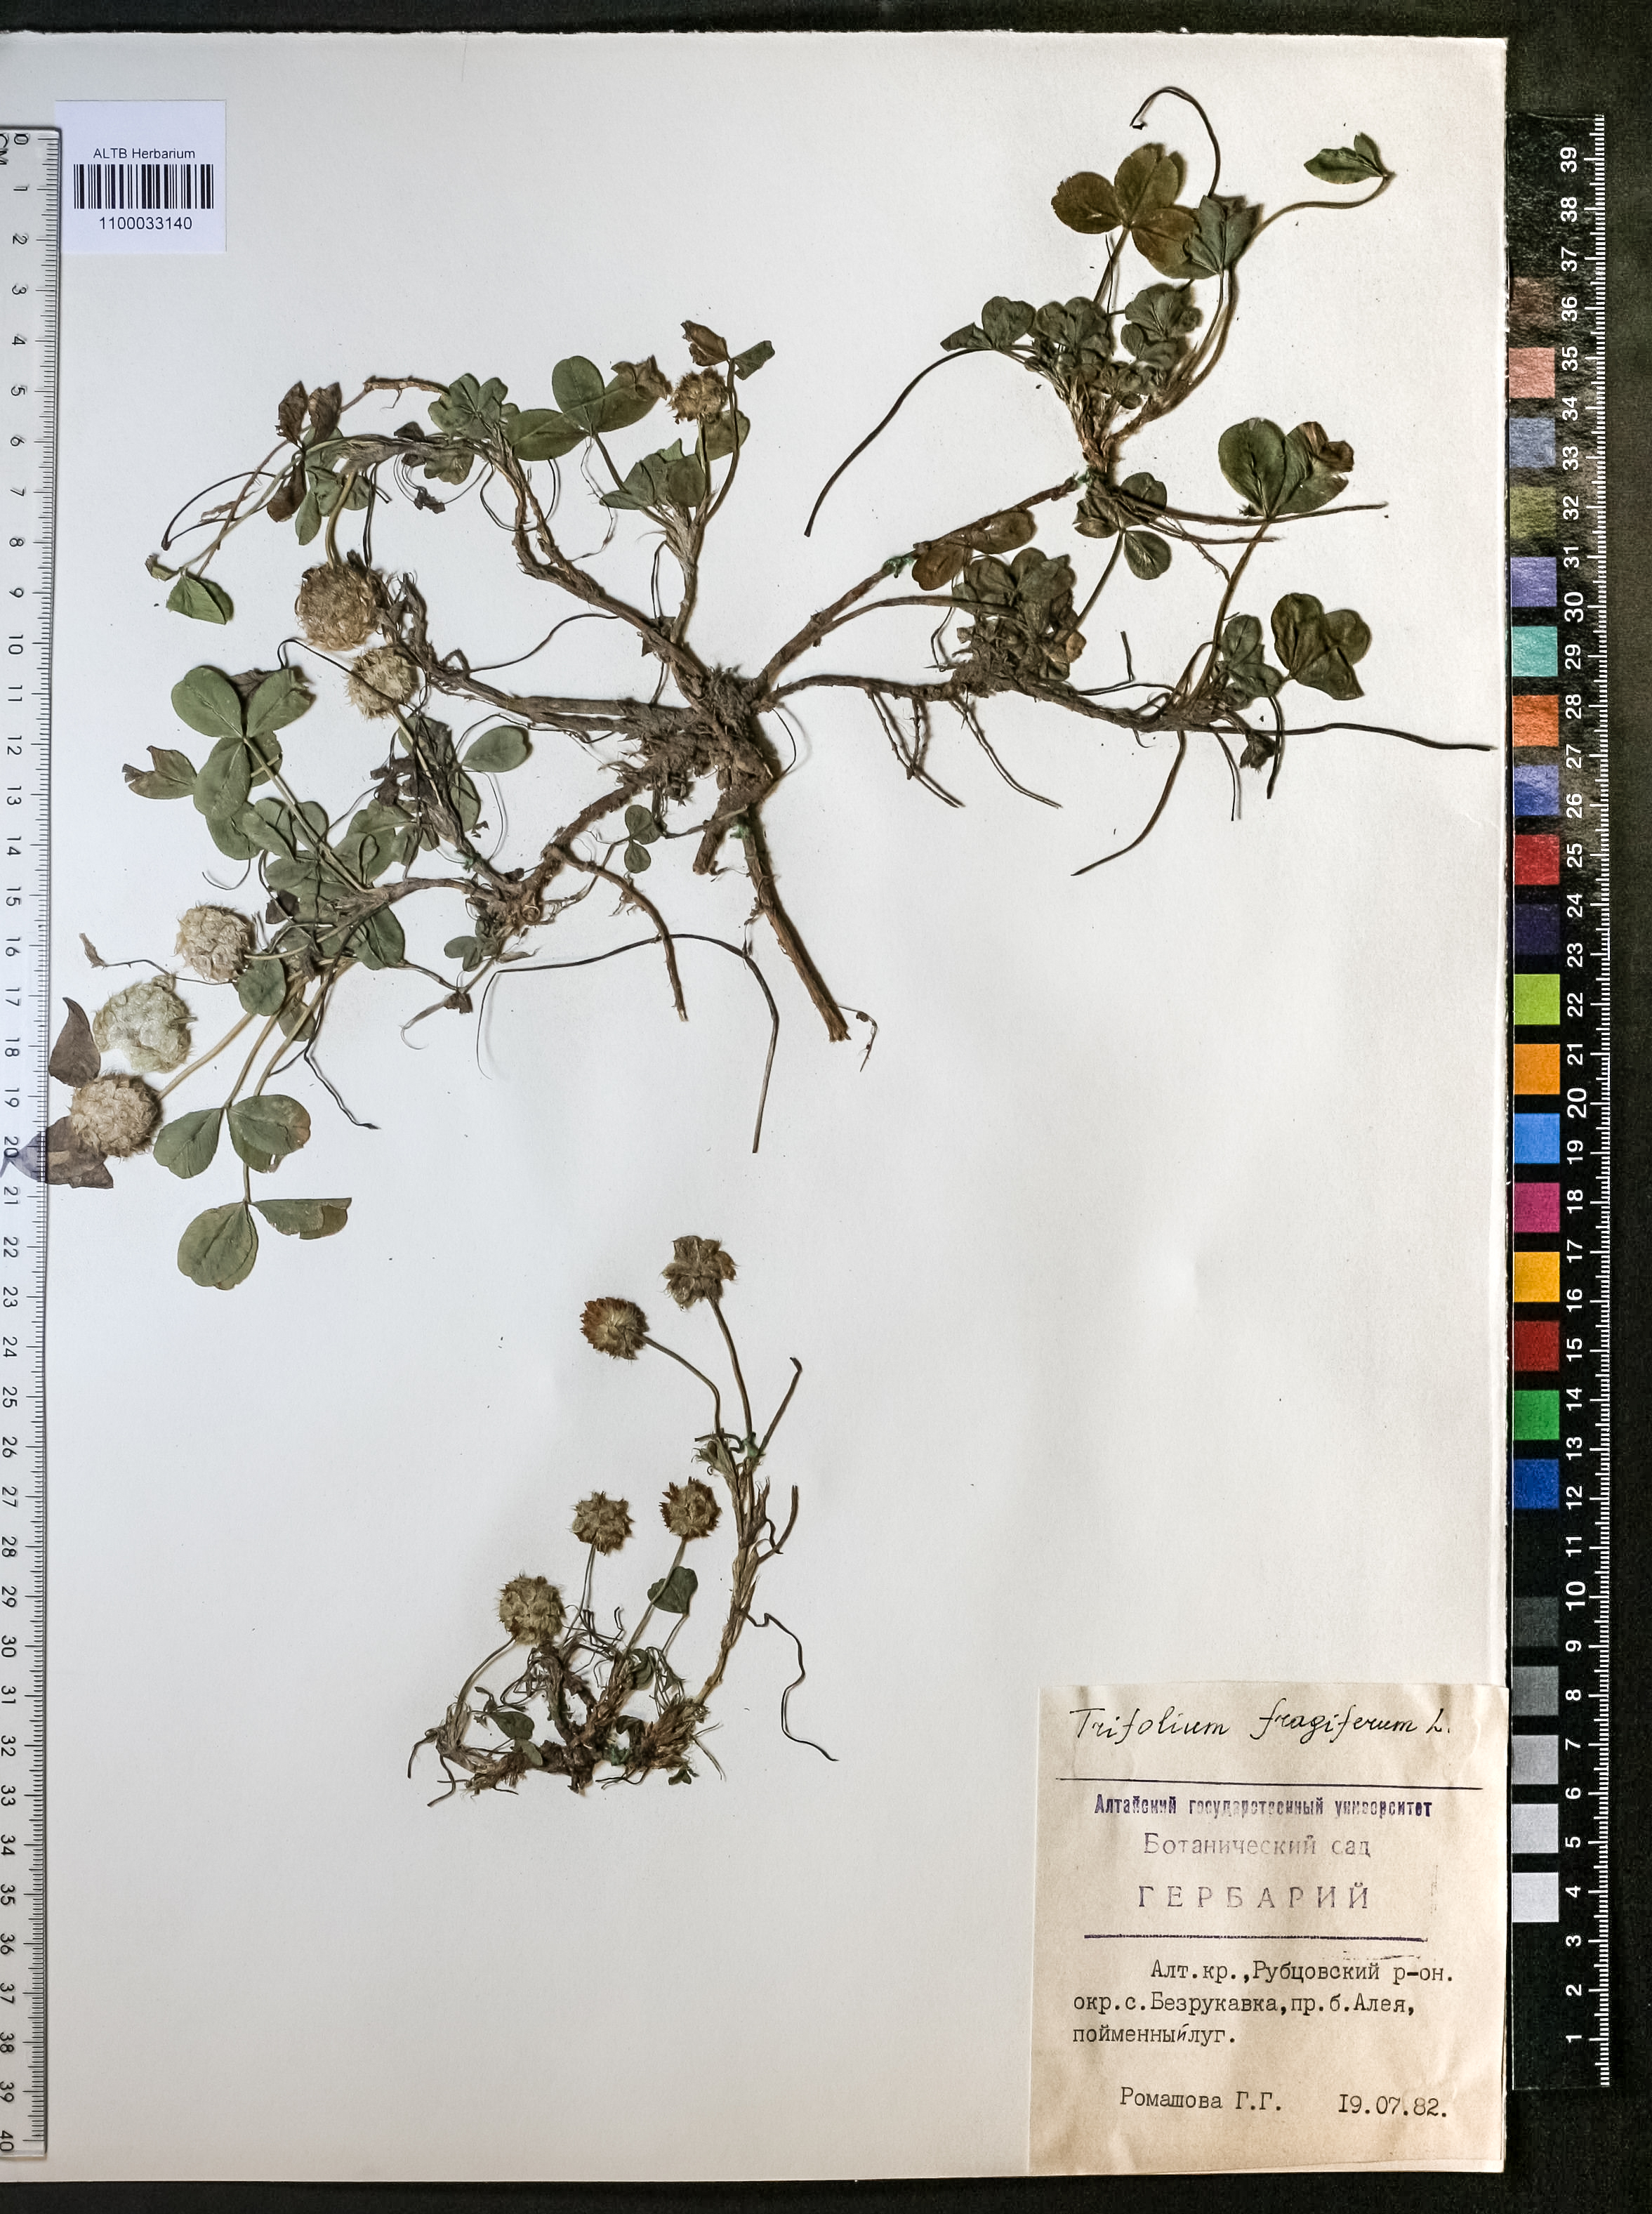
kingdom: Plantae
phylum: Tracheophyta
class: Magnoliopsida
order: Fabales
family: Fabaceae
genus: Trifolium
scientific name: Trifolium fragiferum
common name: Strawberry clover
